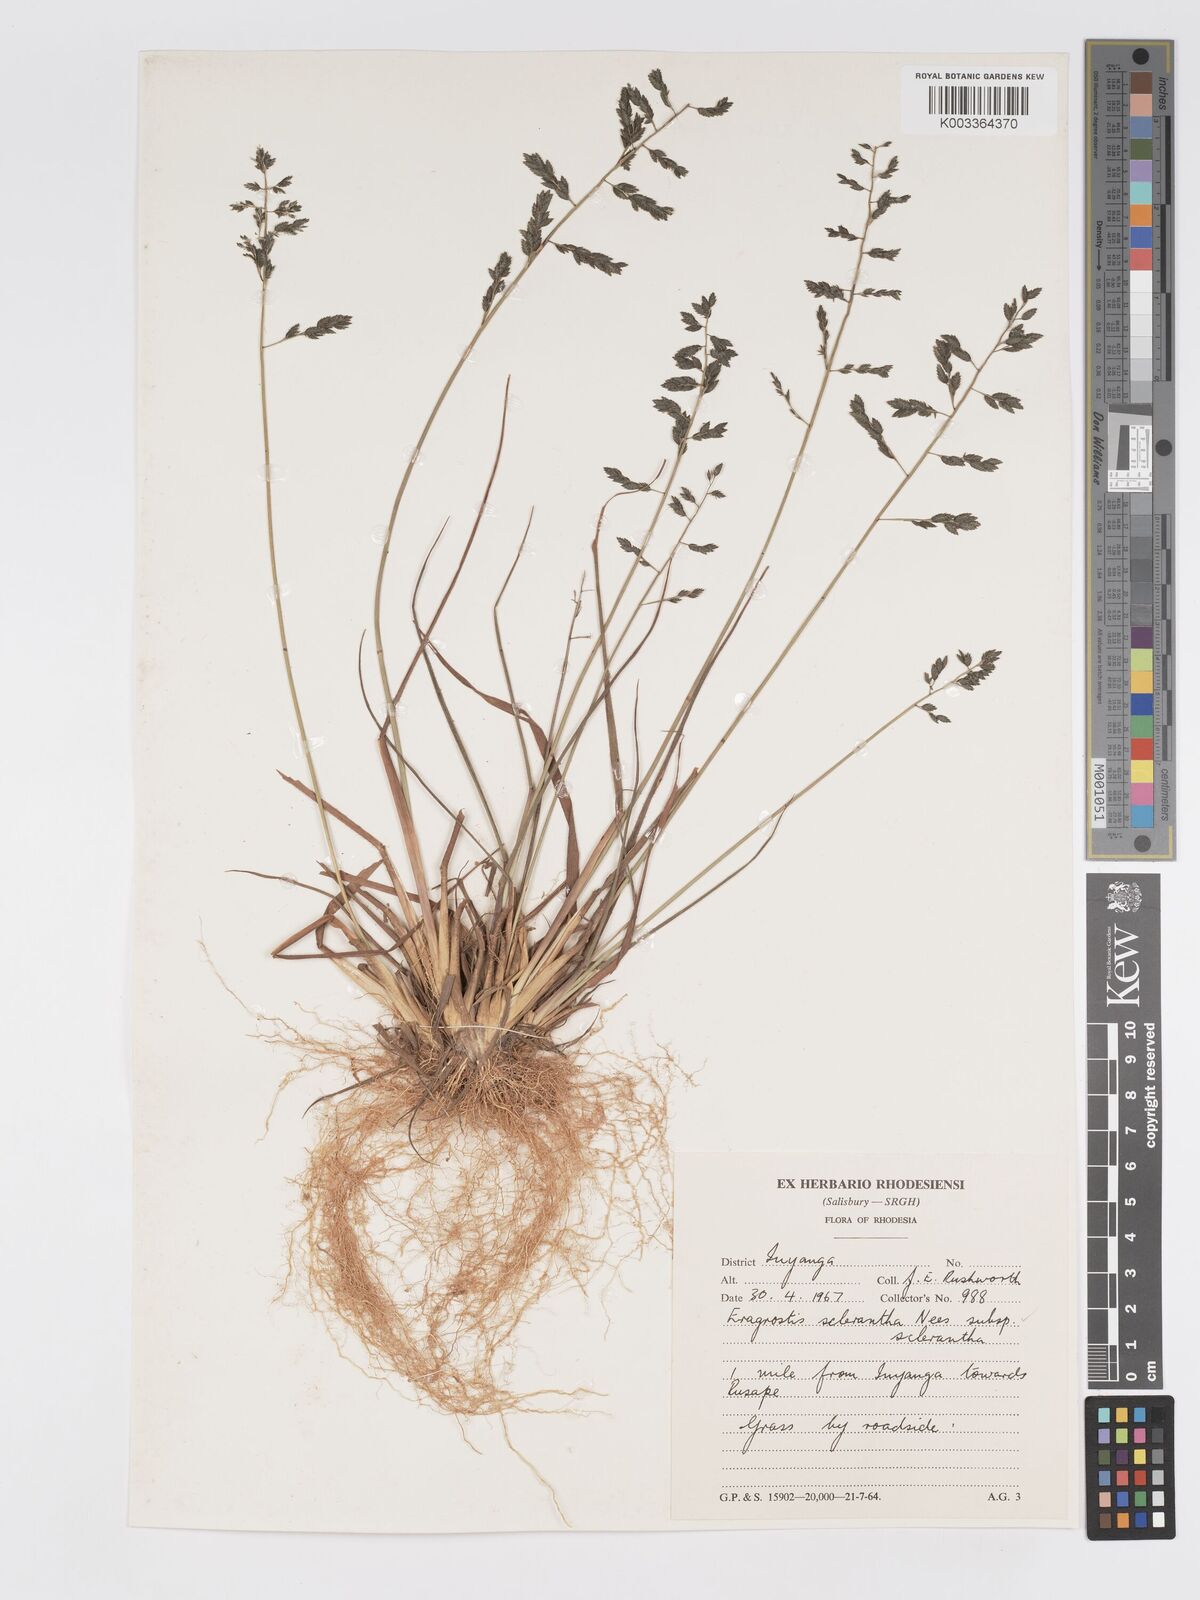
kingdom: Plantae
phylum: Tracheophyta
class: Liliopsida
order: Poales
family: Poaceae
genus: Eragrostis
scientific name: Eragrostis racemosa
